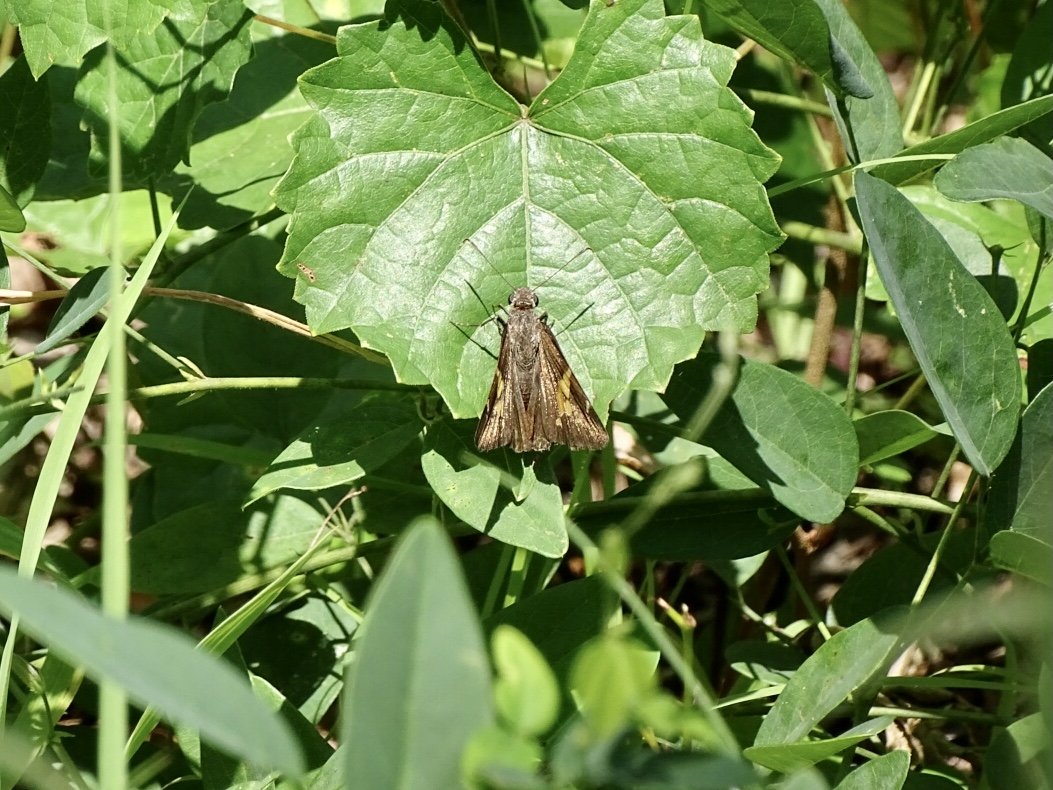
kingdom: Animalia
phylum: Arthropoda
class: Insecta
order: Lepidoptera
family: Hesperiidae
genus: Epargyreus
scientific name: Epargyreus clarus
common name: Silver-spotted Skipper
